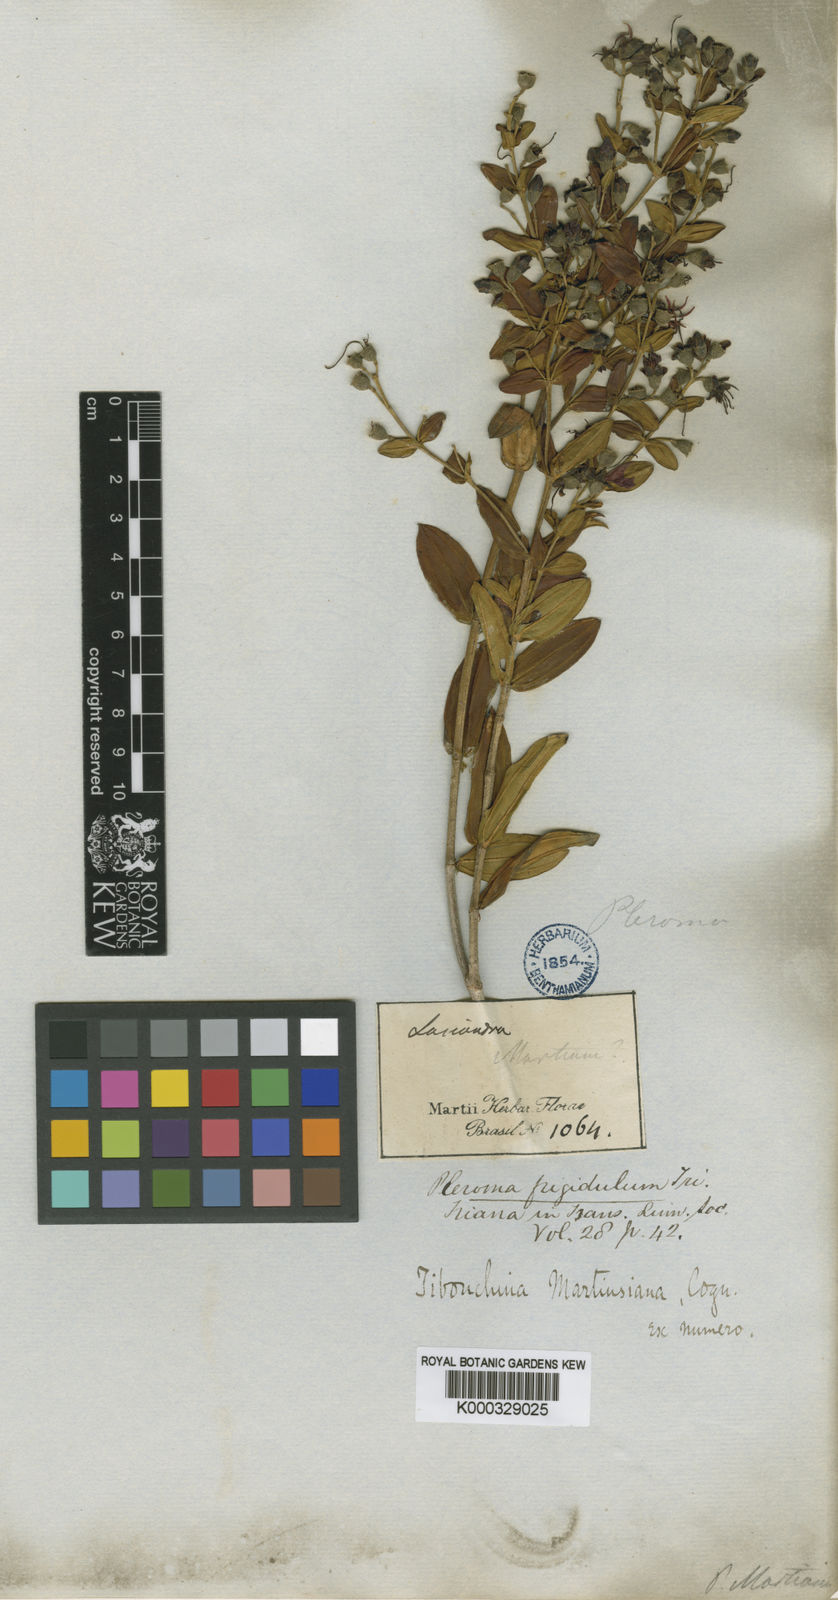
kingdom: Plantae
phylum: Tracheophyta
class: Magnoliopsida
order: Myrtales
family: Melastomataceae
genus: Pleroma
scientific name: Pleroma martiusianum
